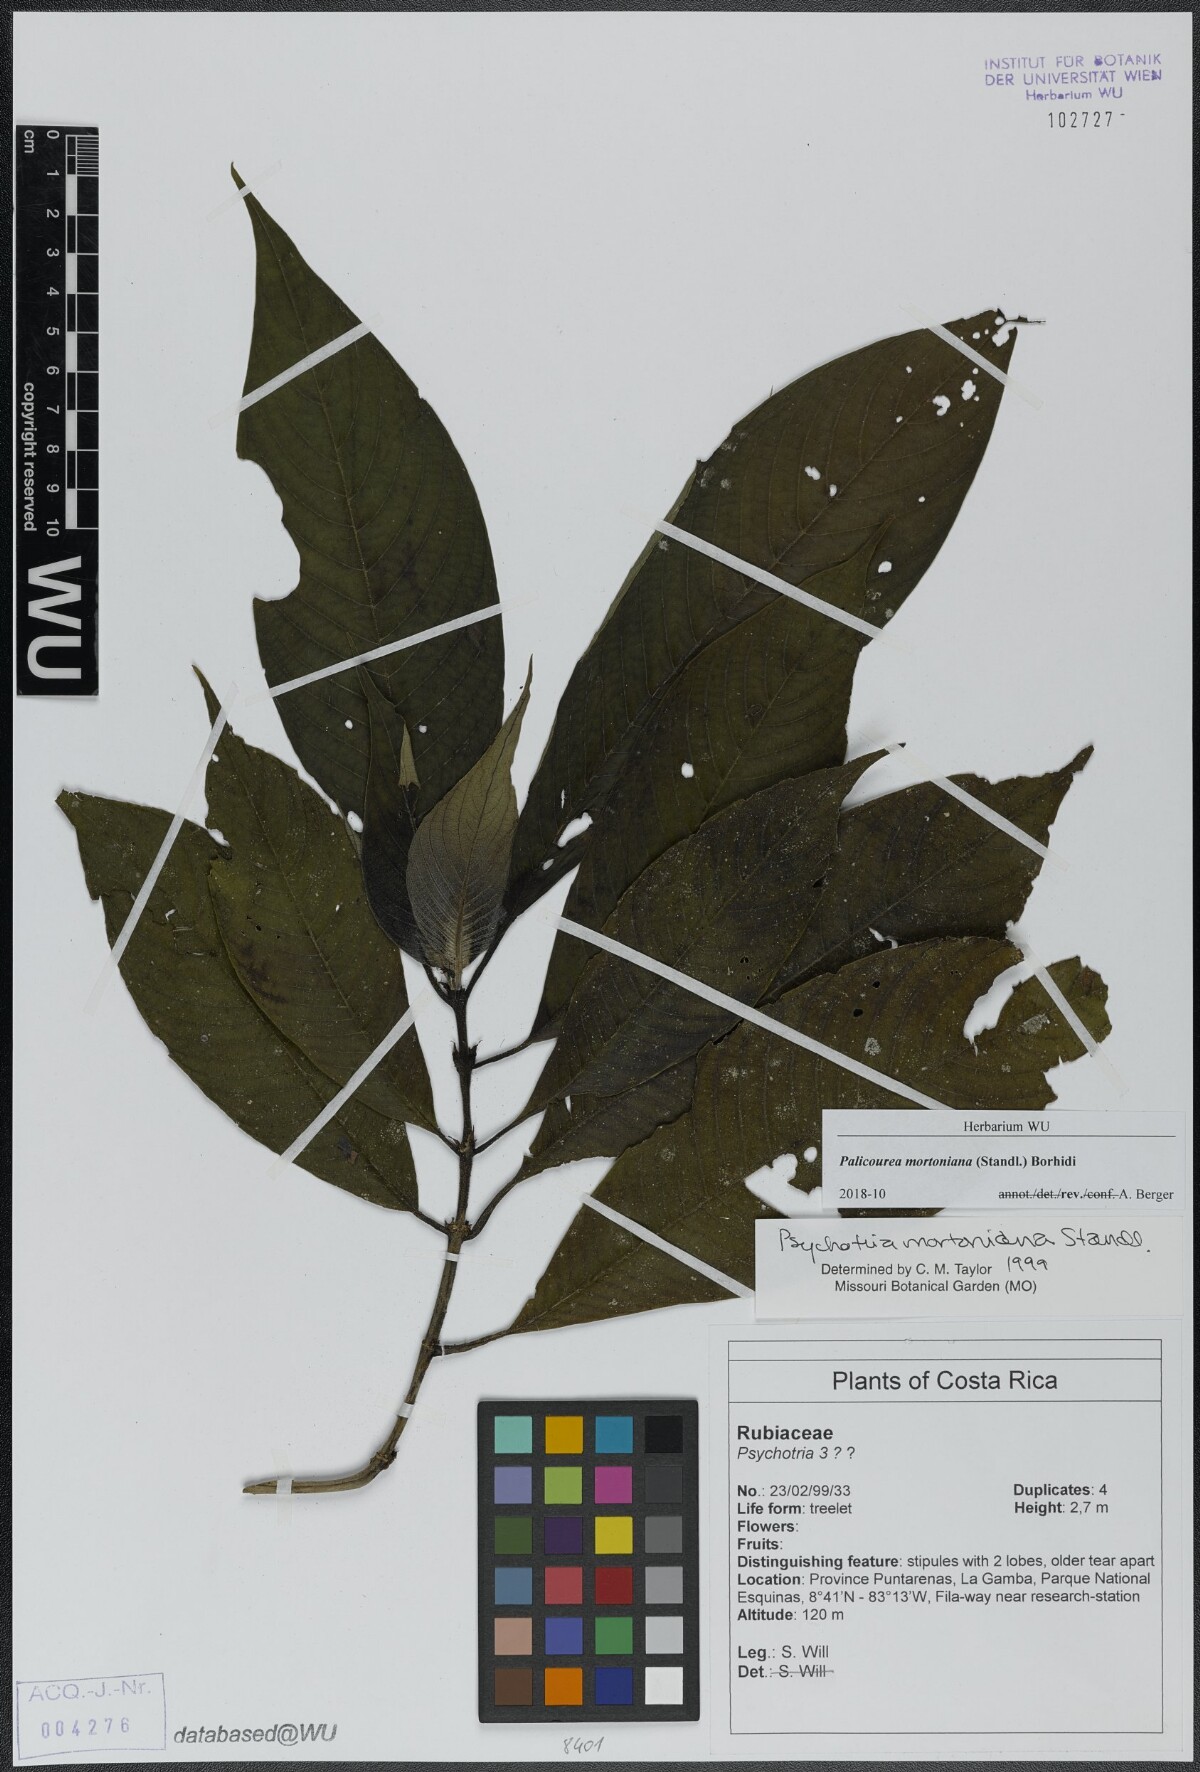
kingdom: Plantae
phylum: Tracheophyta
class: Magnoliopsida
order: Gentianales
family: Rubiaceae
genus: Palicourea
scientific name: Palicourea mortoniana
